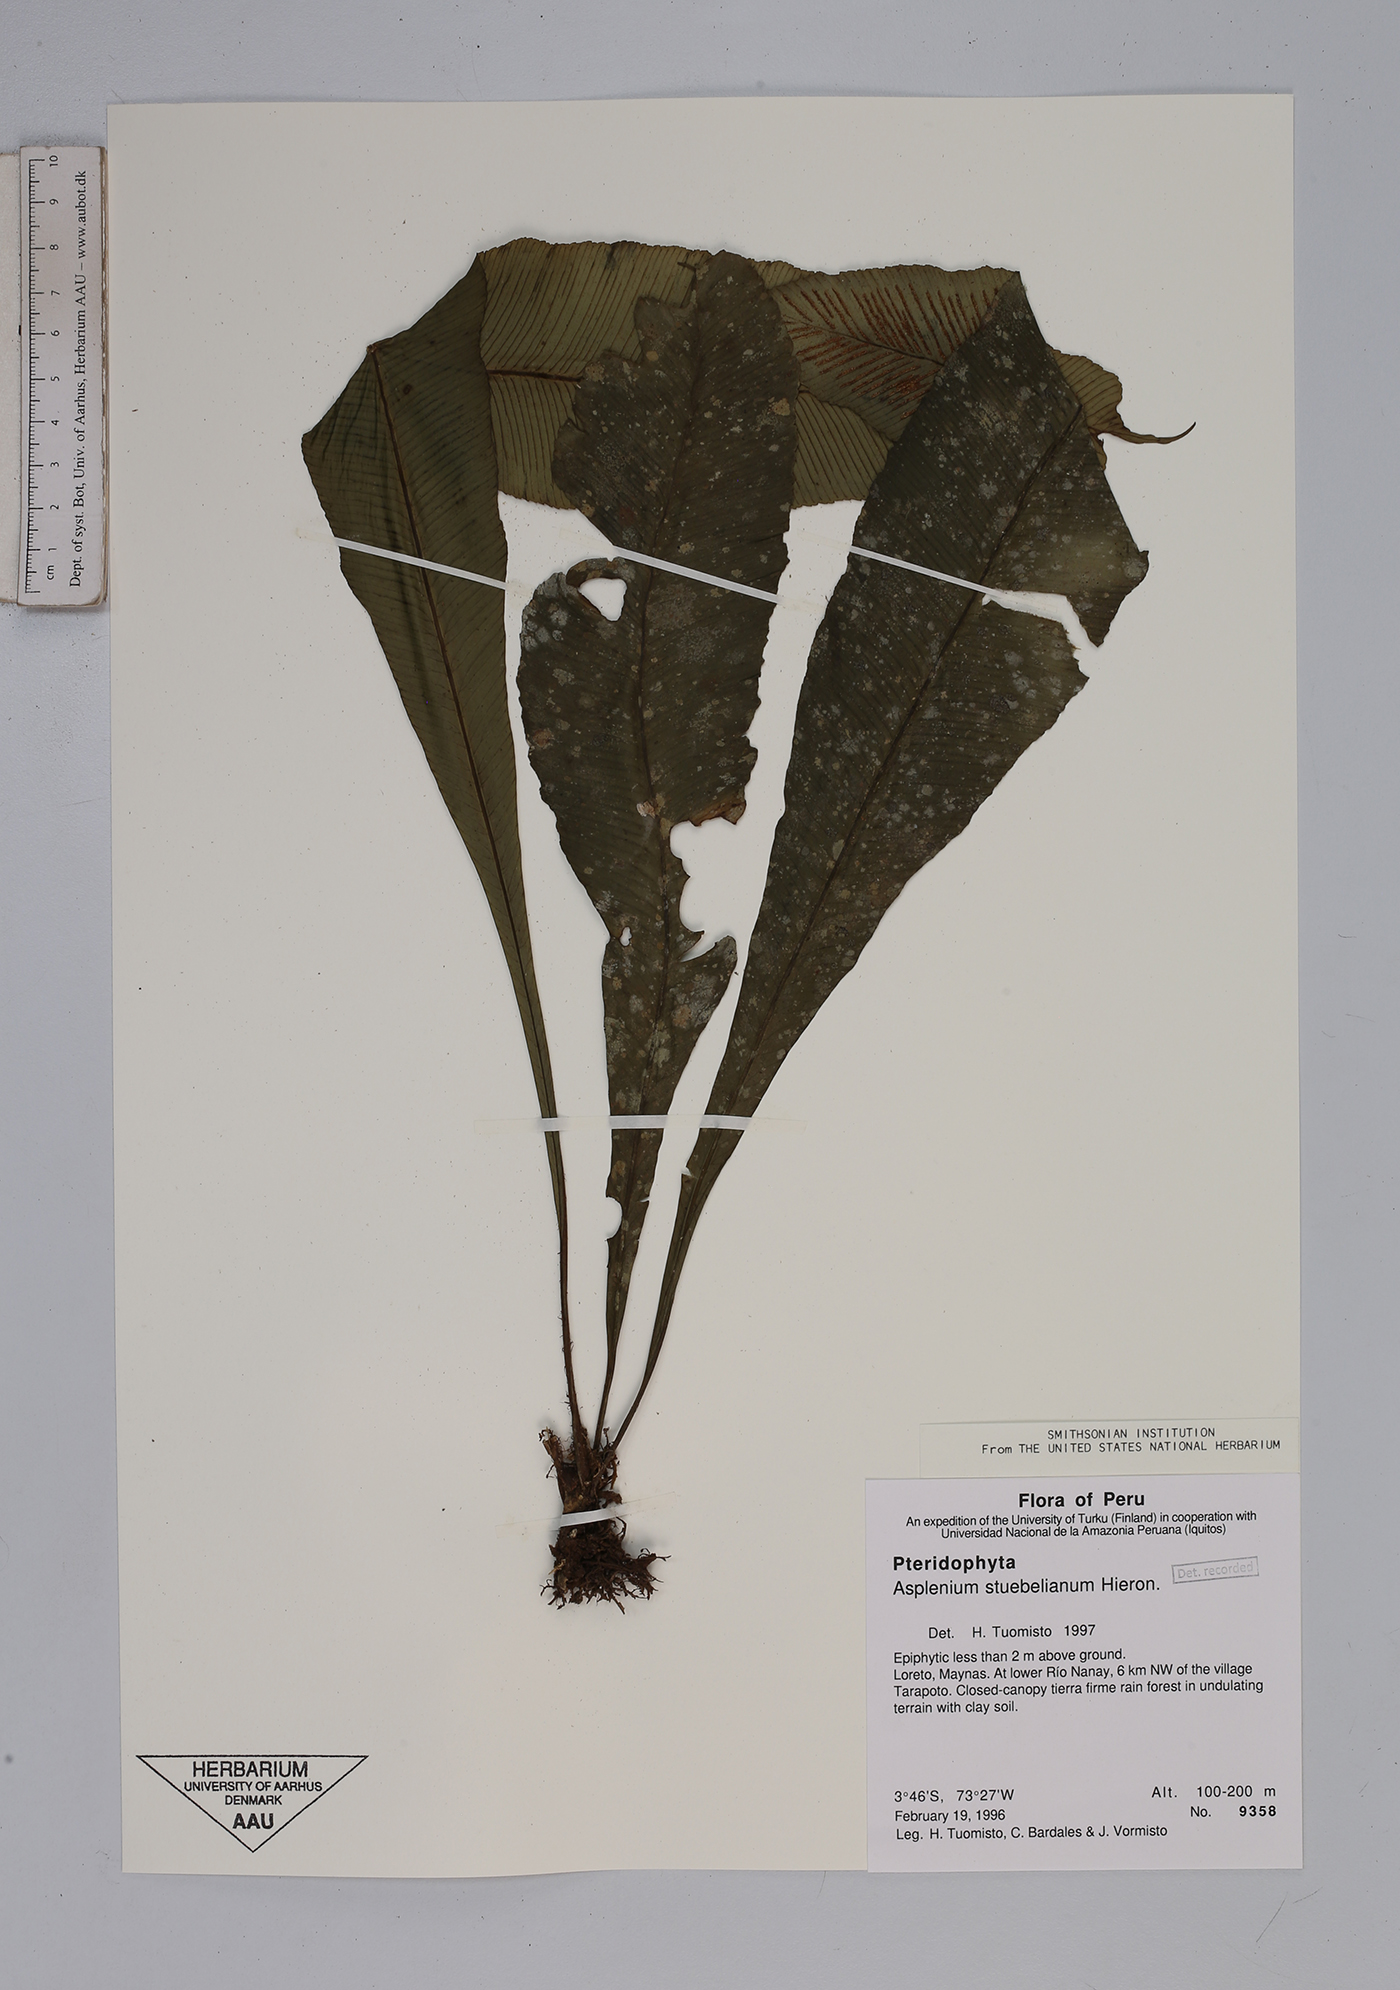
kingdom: Plantae
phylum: Tracheophyta
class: Polypodiopsida
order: Polypodiales
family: Aspleniaceae
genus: Asplenium
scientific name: Asplenium stuebelianum
